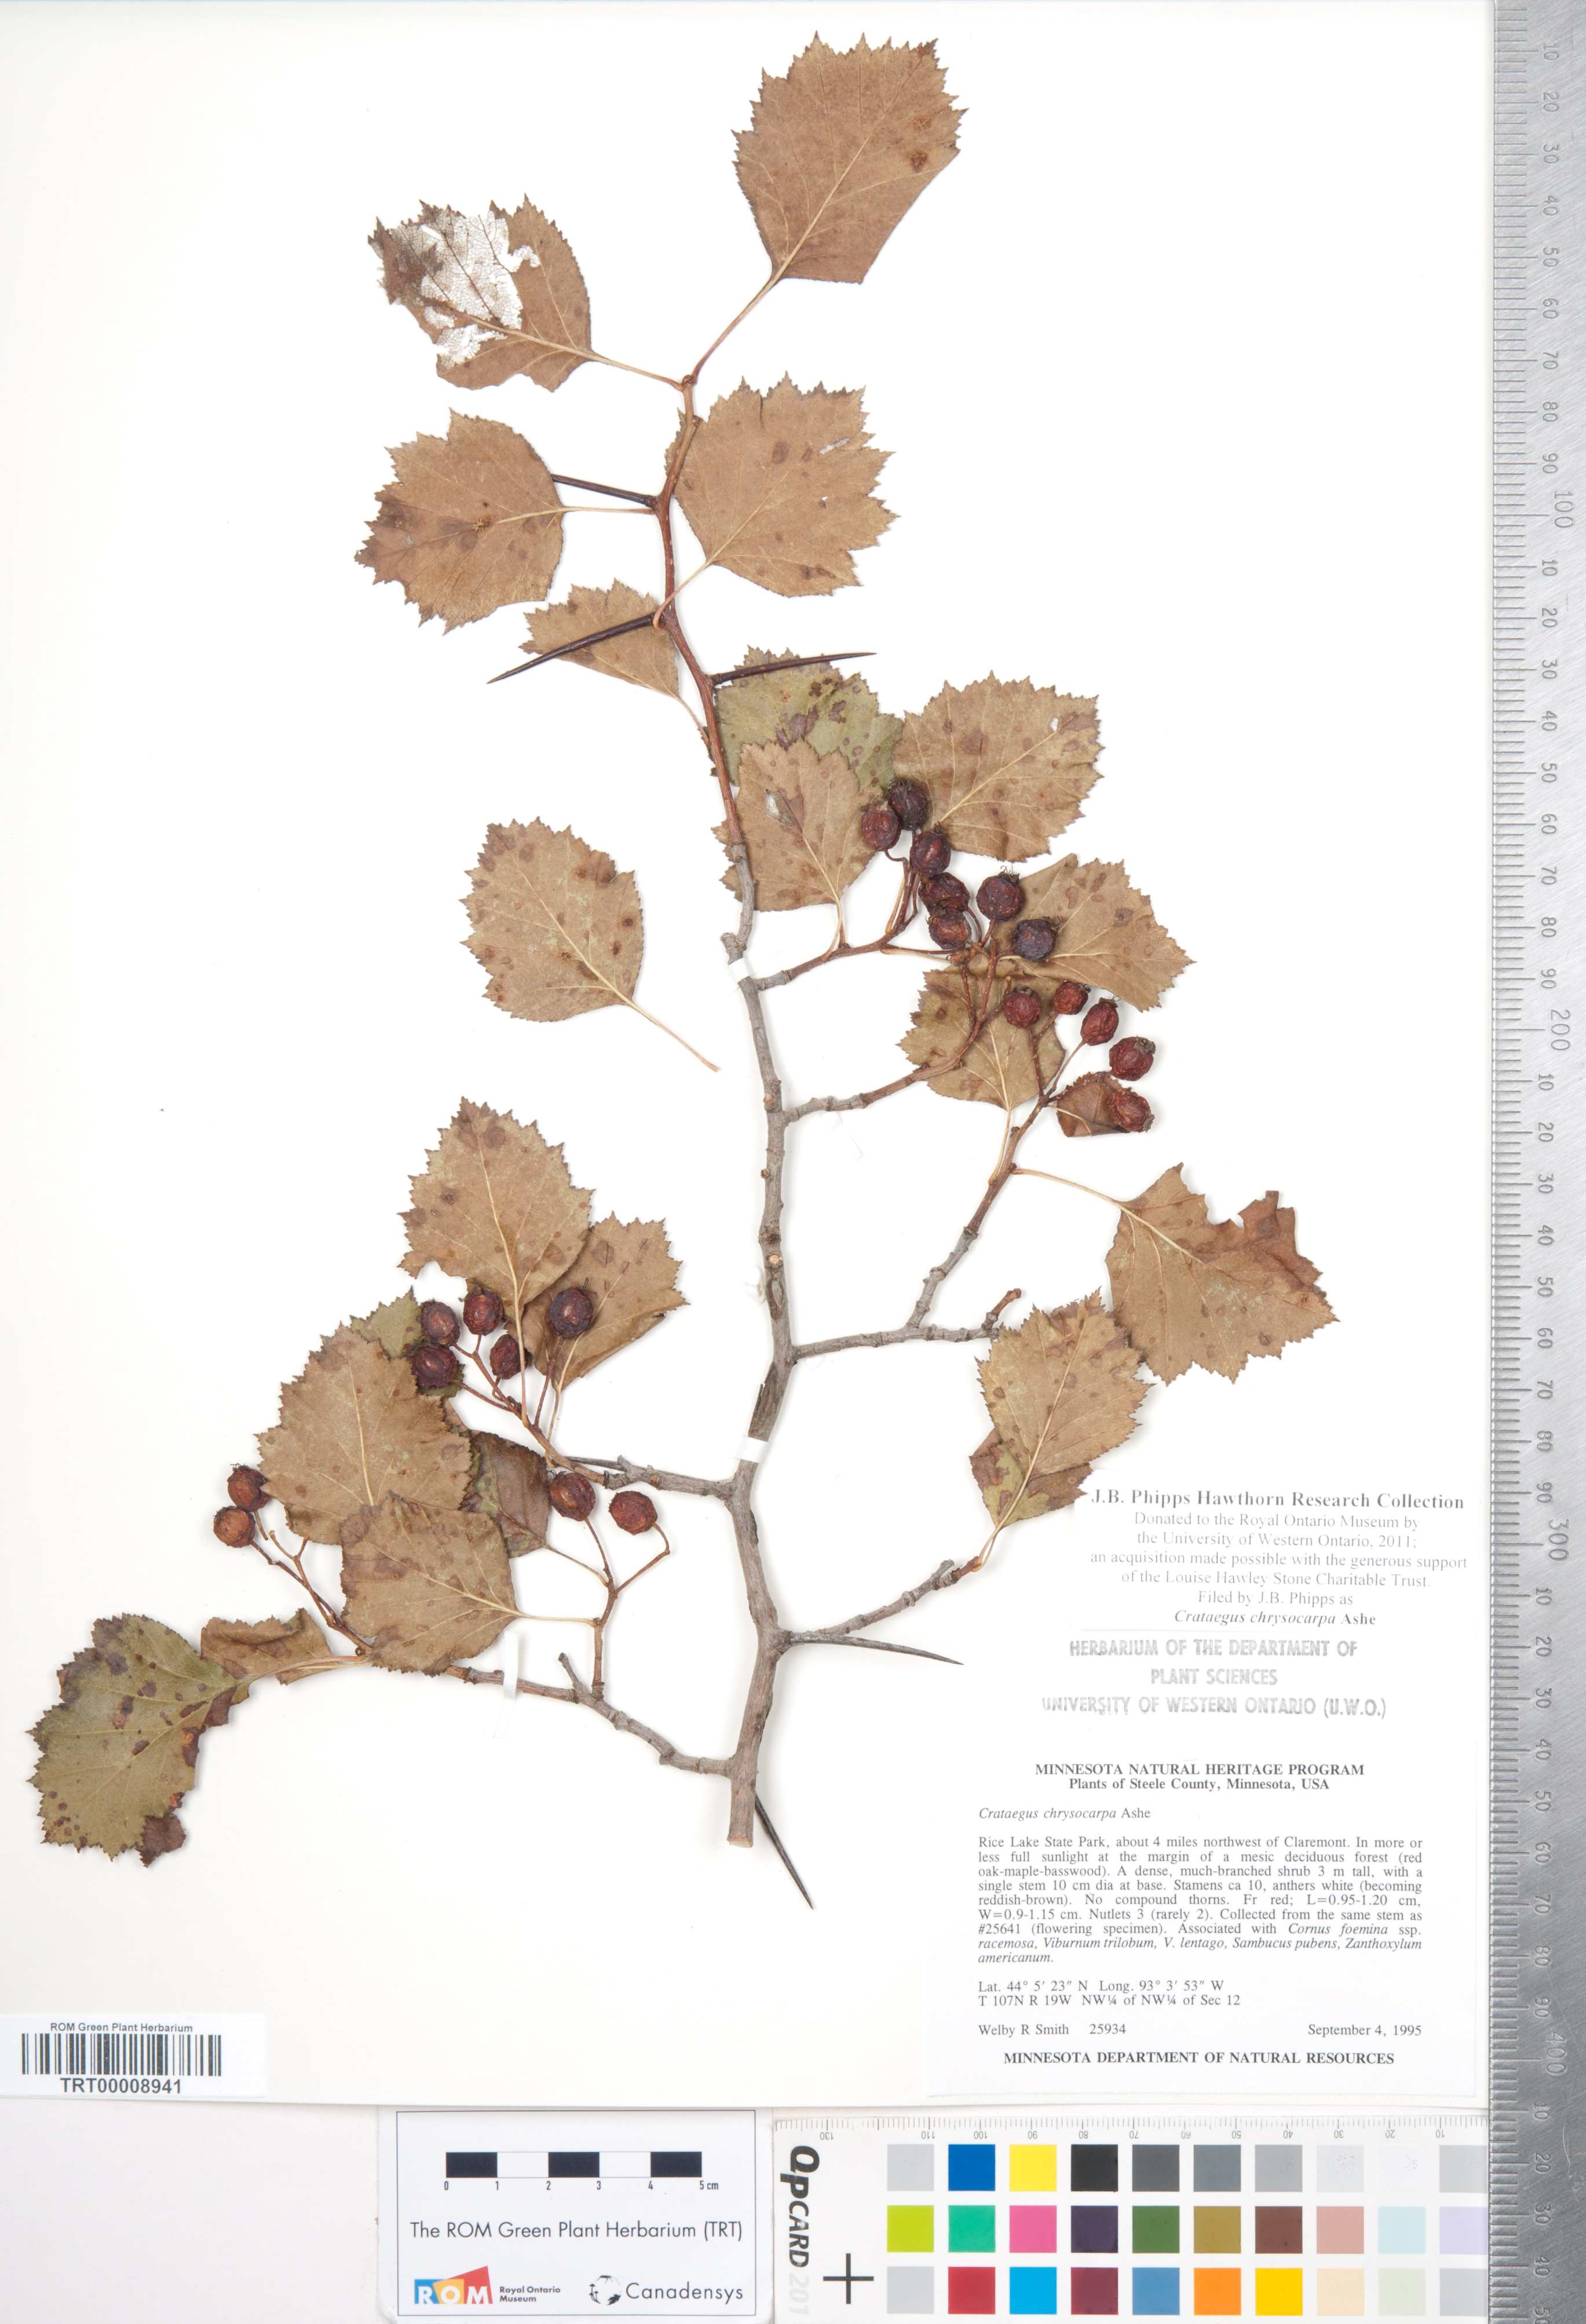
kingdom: Plantae
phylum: Tracheophyta
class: Magnoliopsida
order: Rosales
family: Rosaceae
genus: Crataegus
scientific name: Crataegus chrysocarpa
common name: Fire-berry hawthorn
